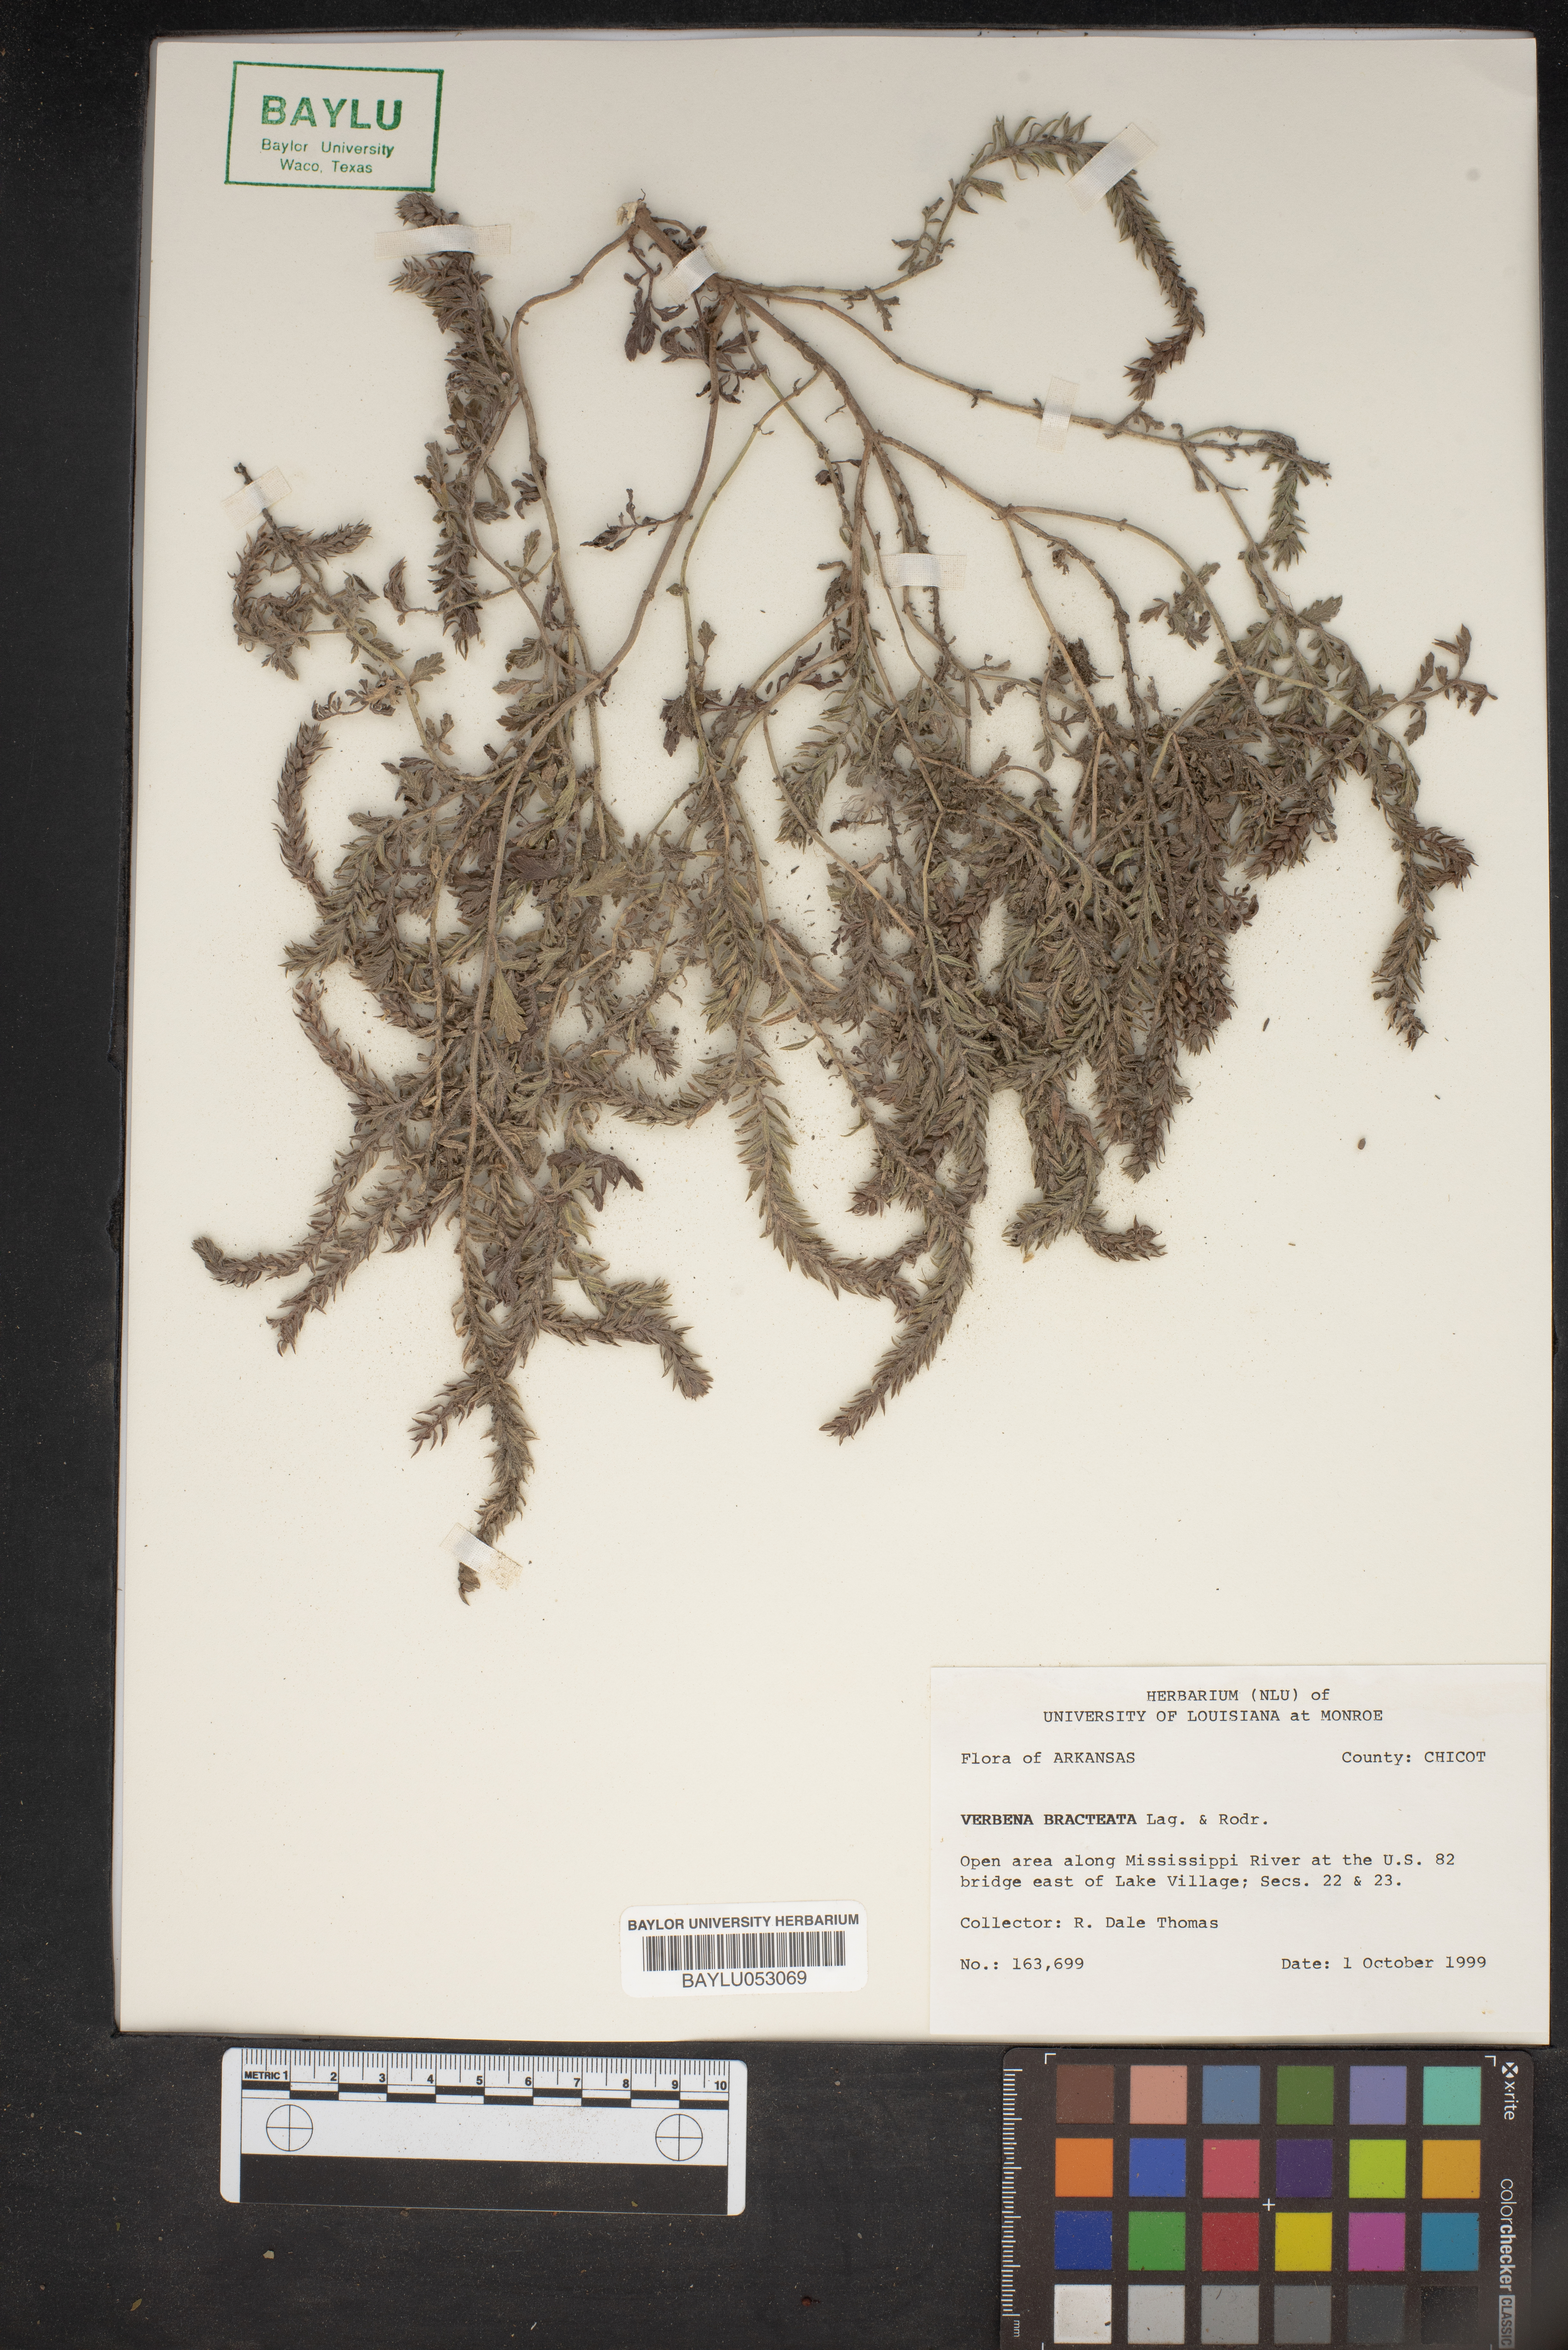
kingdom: Plantae
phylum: Tracheophyta
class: Magnoliopsida
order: Lamiales
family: Verbenaceae
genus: Verbena
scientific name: Verbena bracteata
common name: Bracted vervain
